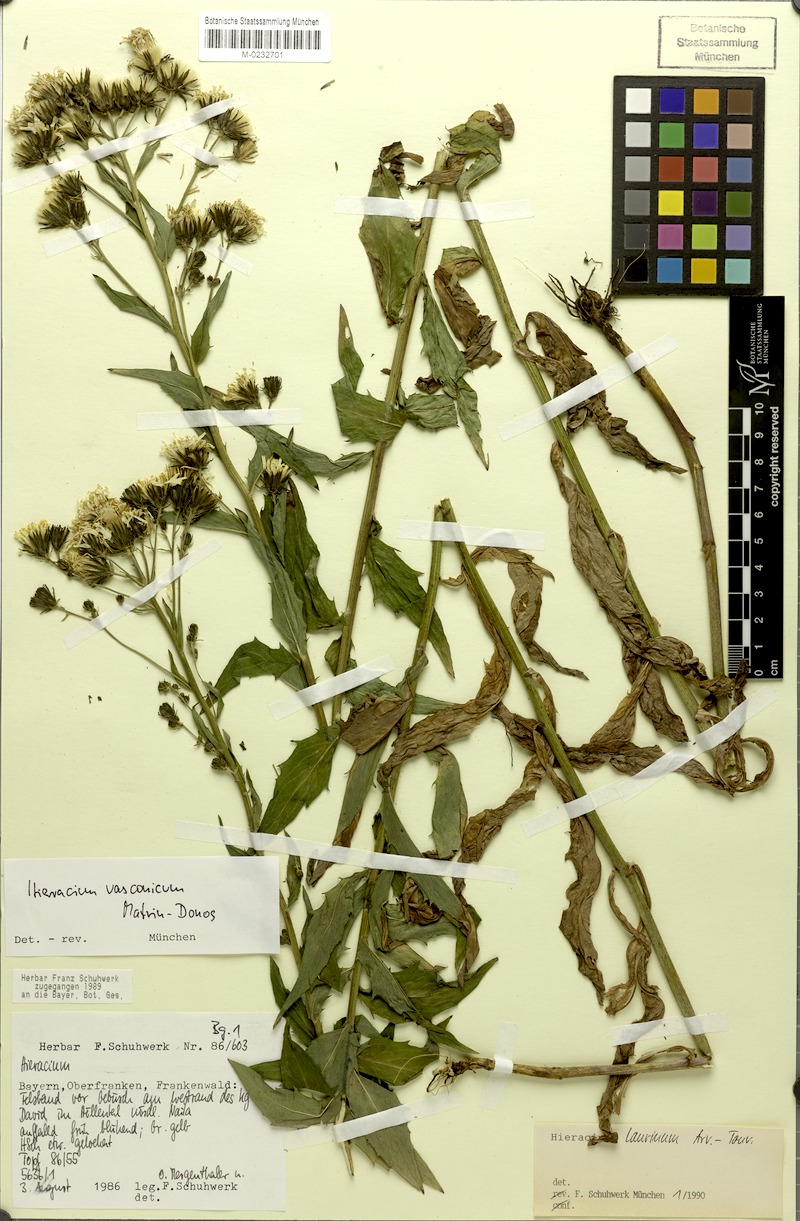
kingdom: Plantae
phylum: Tracheophyta
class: Magnoliopsida
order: Asterales
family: Asteraceae
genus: Hieracium
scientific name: Hieracium vasconicum
